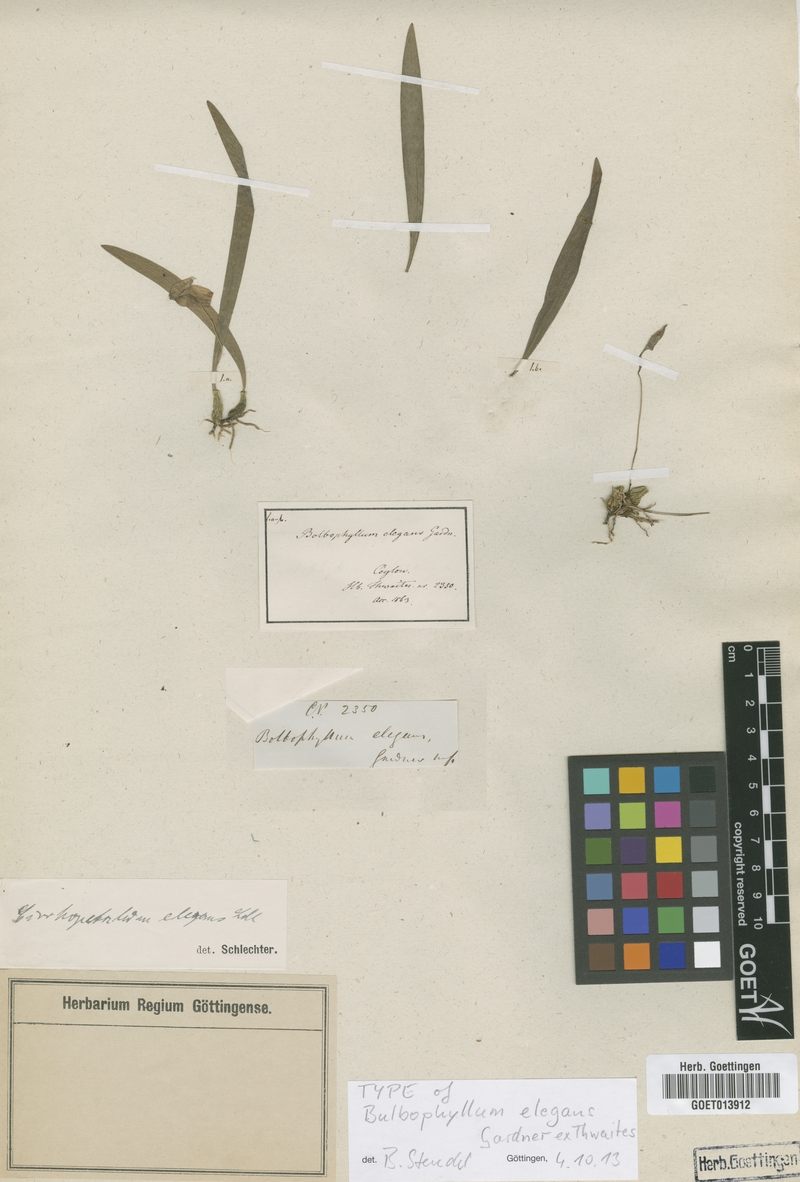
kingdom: Plantae
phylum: Tracheophyta
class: Liliopsida
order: Asparagales
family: Orchidaceae
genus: Bulbophyllum
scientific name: Bulbophyllum elegans
